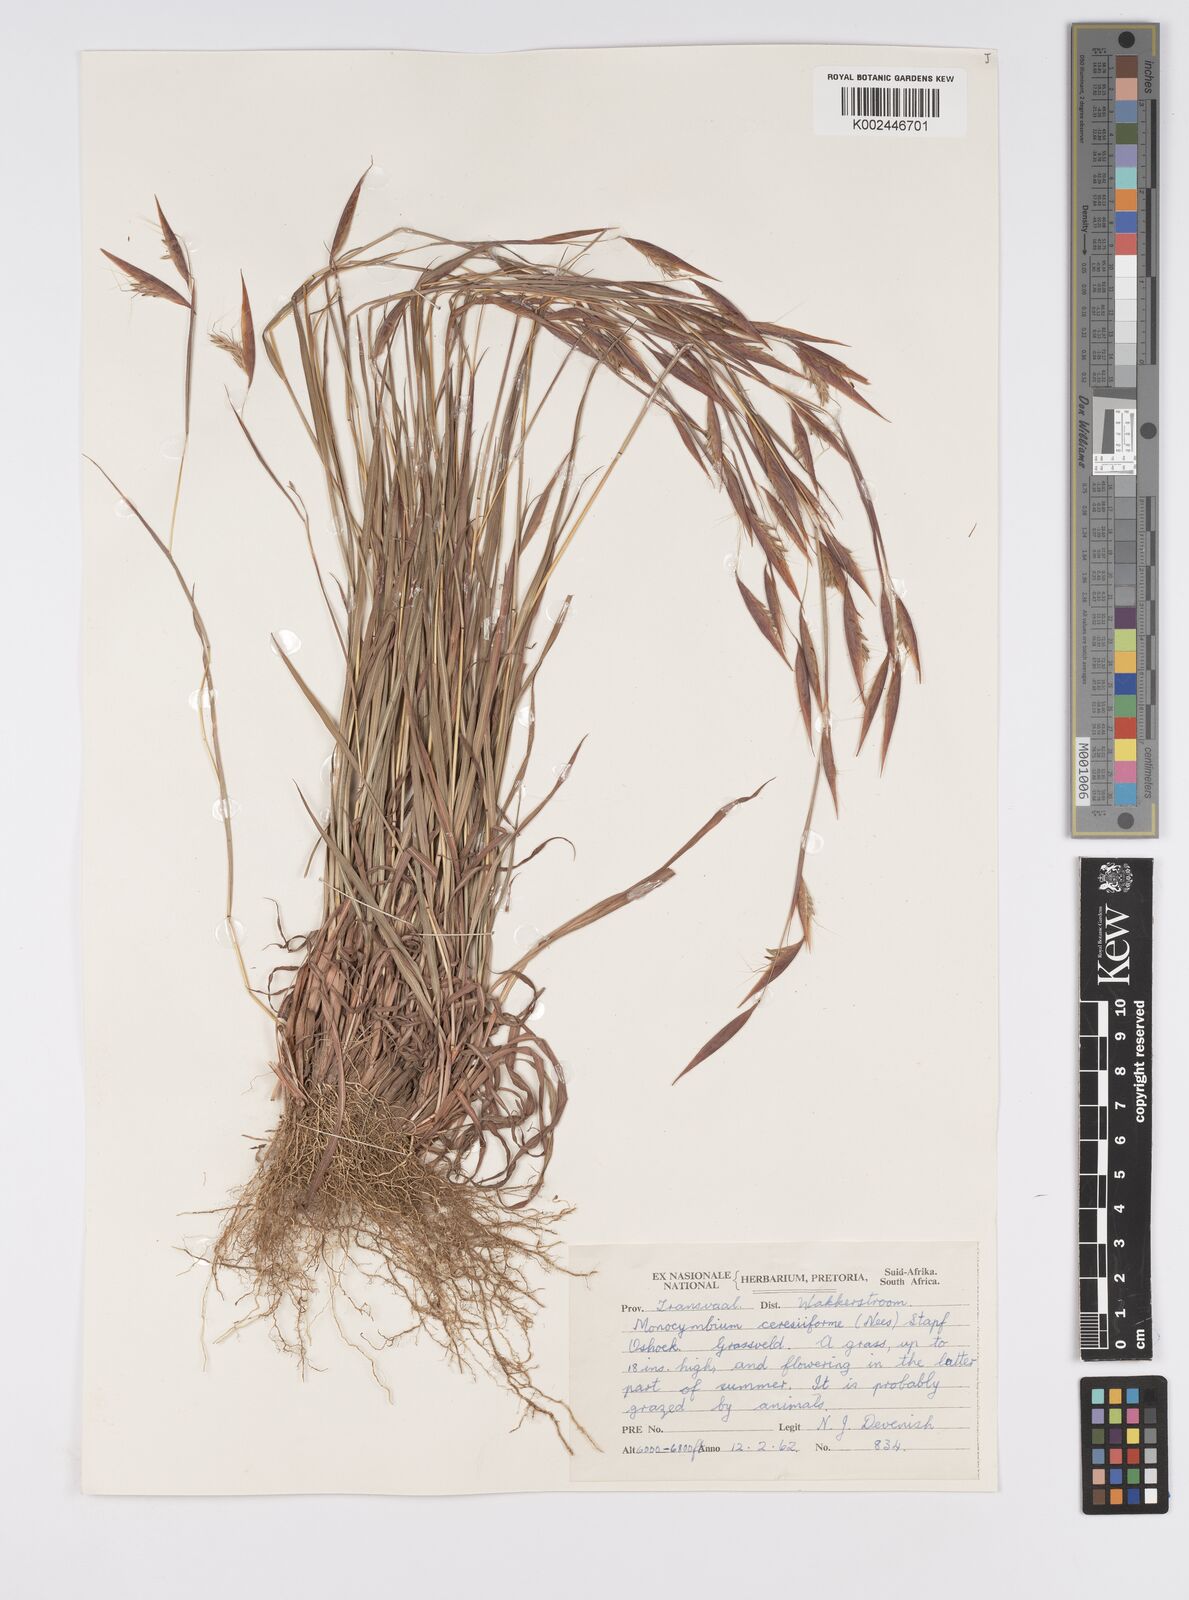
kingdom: Plantae
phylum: Tracheophyta
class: Liliopsida
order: Poales
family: Poaceae
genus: Monocymbium
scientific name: Monocymbium ceresiiforme
